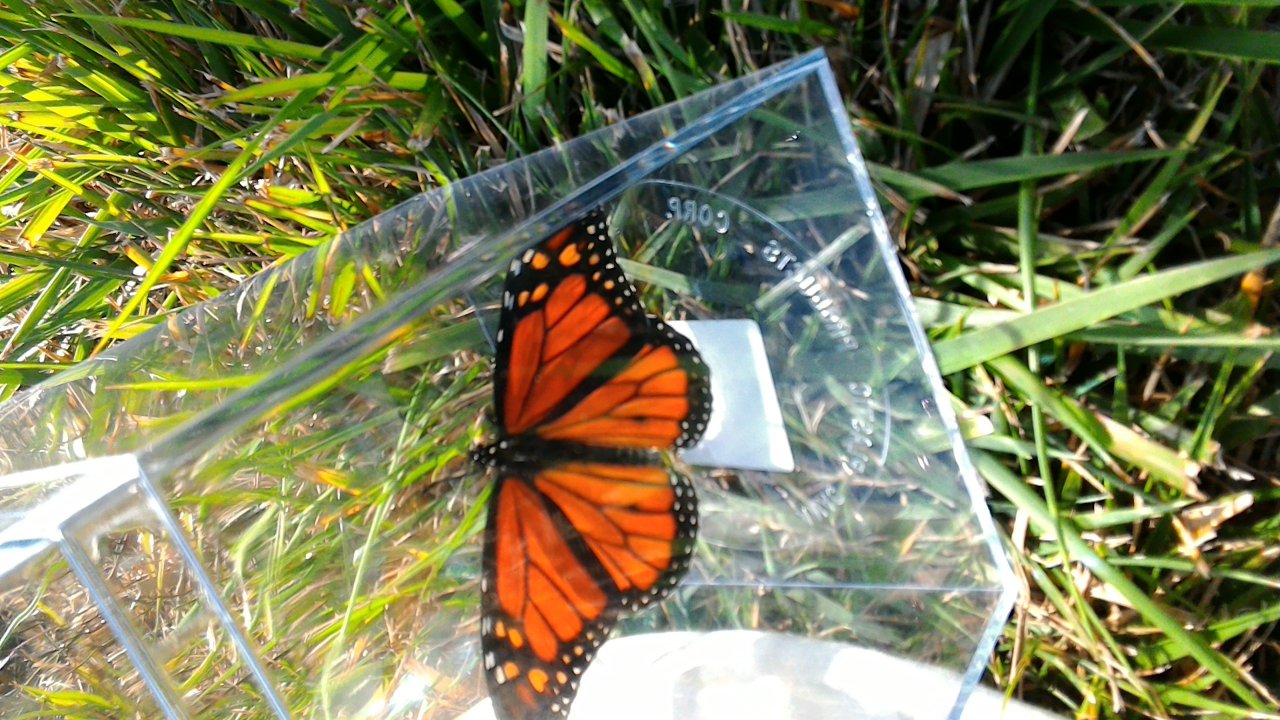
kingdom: Animalia
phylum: Arthropoda
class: Insecta
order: Lepidoptera
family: Nymphalidae
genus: Danaus
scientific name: Danaus plexippus
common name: Monarch
